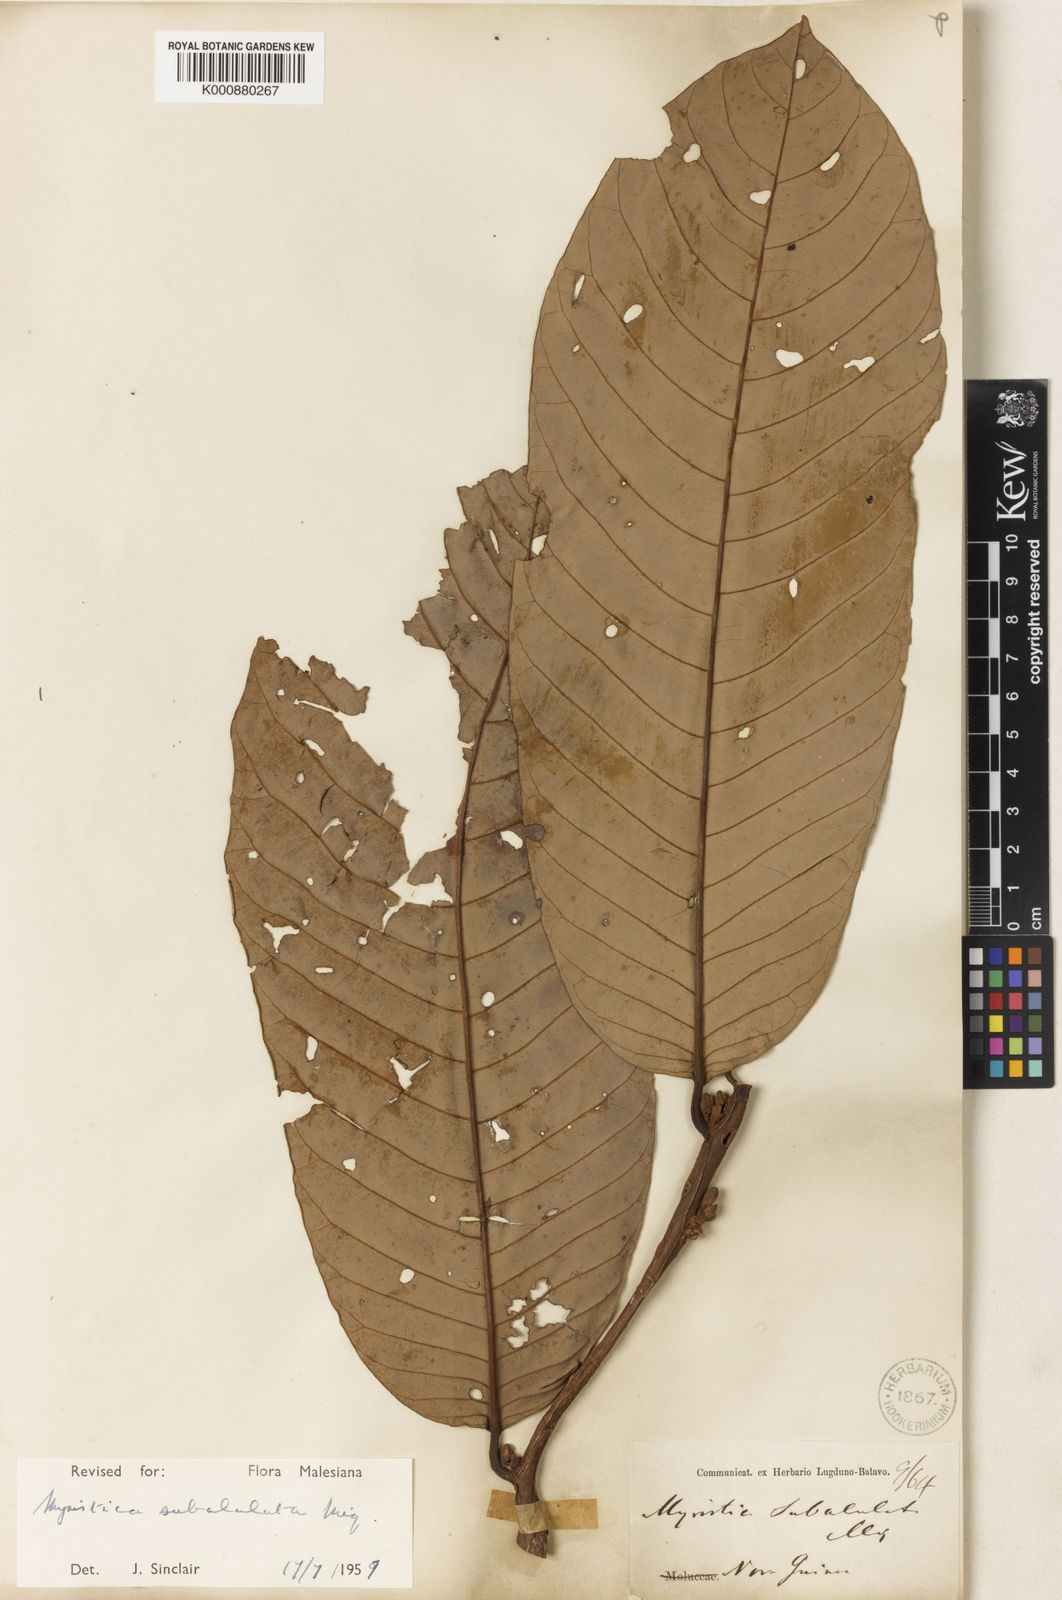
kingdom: Plantae
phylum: Tracheophyta
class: Magnoliopsida
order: Magnoliales
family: Myristicaceae
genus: Myristica
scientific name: Myristica subalulata
